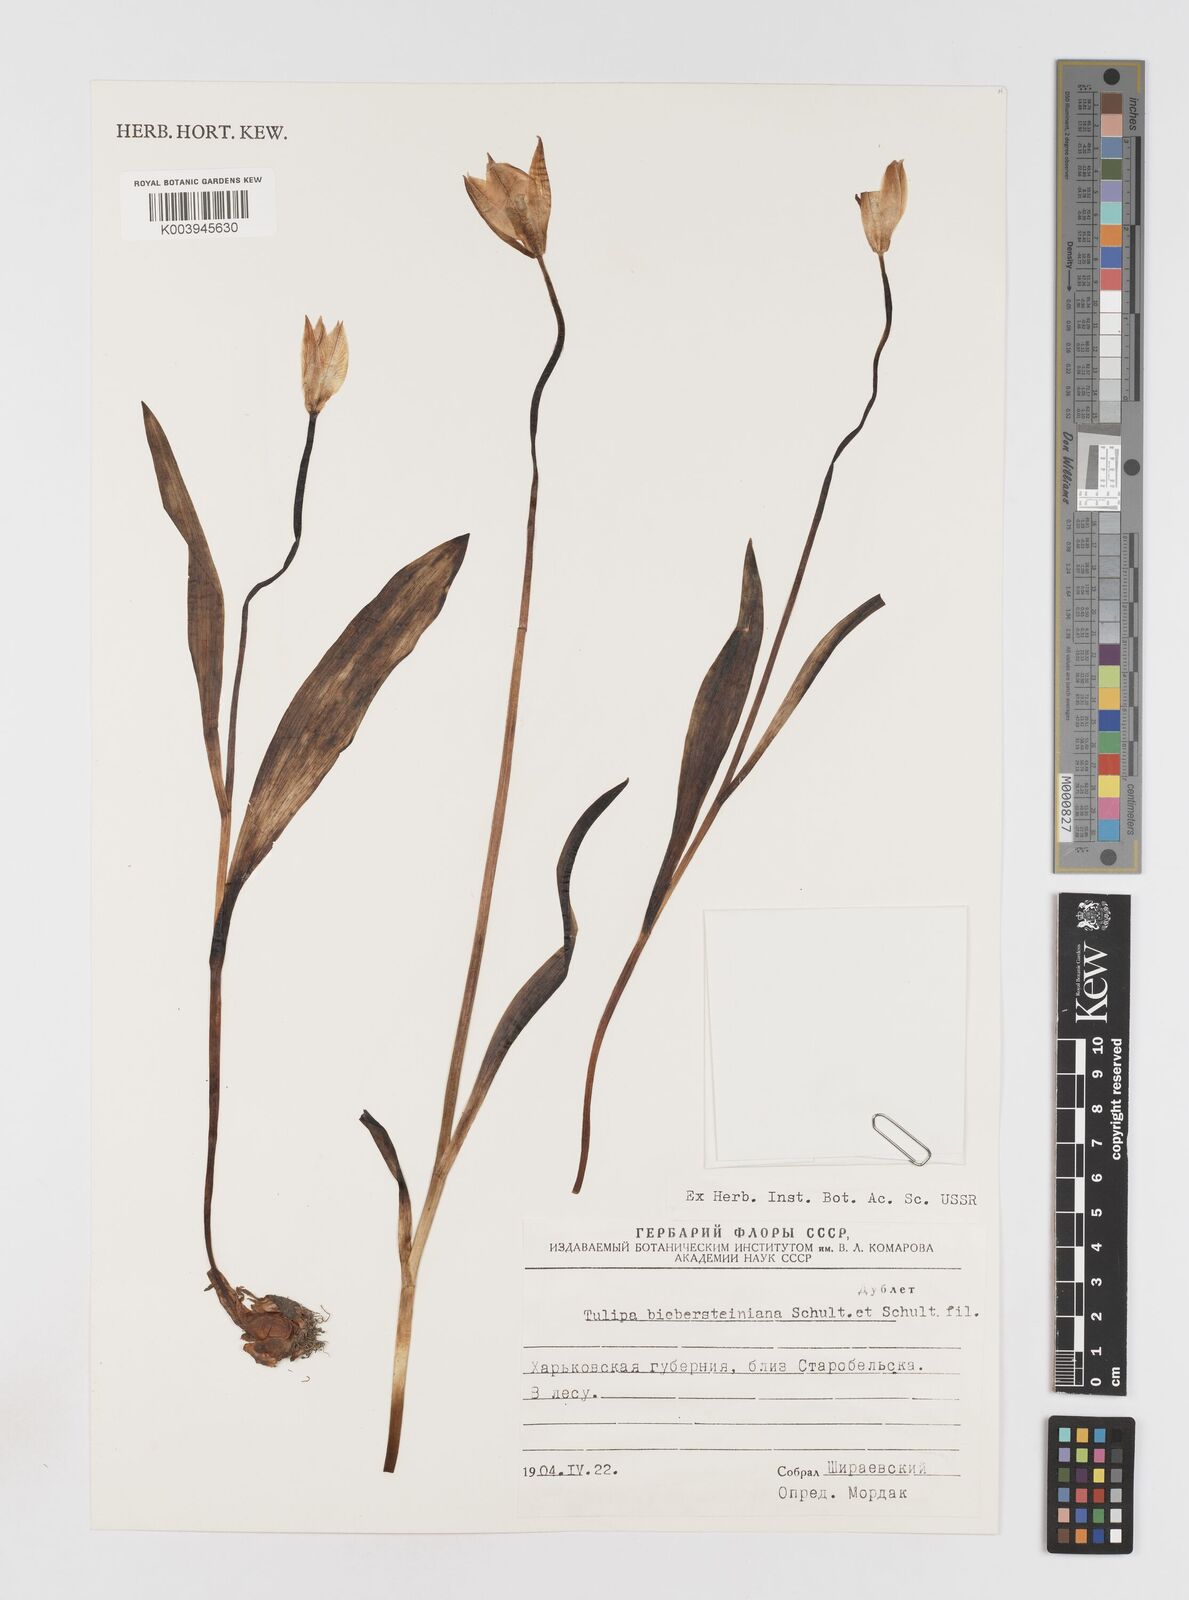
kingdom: Plantae
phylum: Tracheophyta
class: Liliopsida
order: Liliales
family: Liliaceae
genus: Tulipa
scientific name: Tulipa sylvestris
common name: Wild tulip
